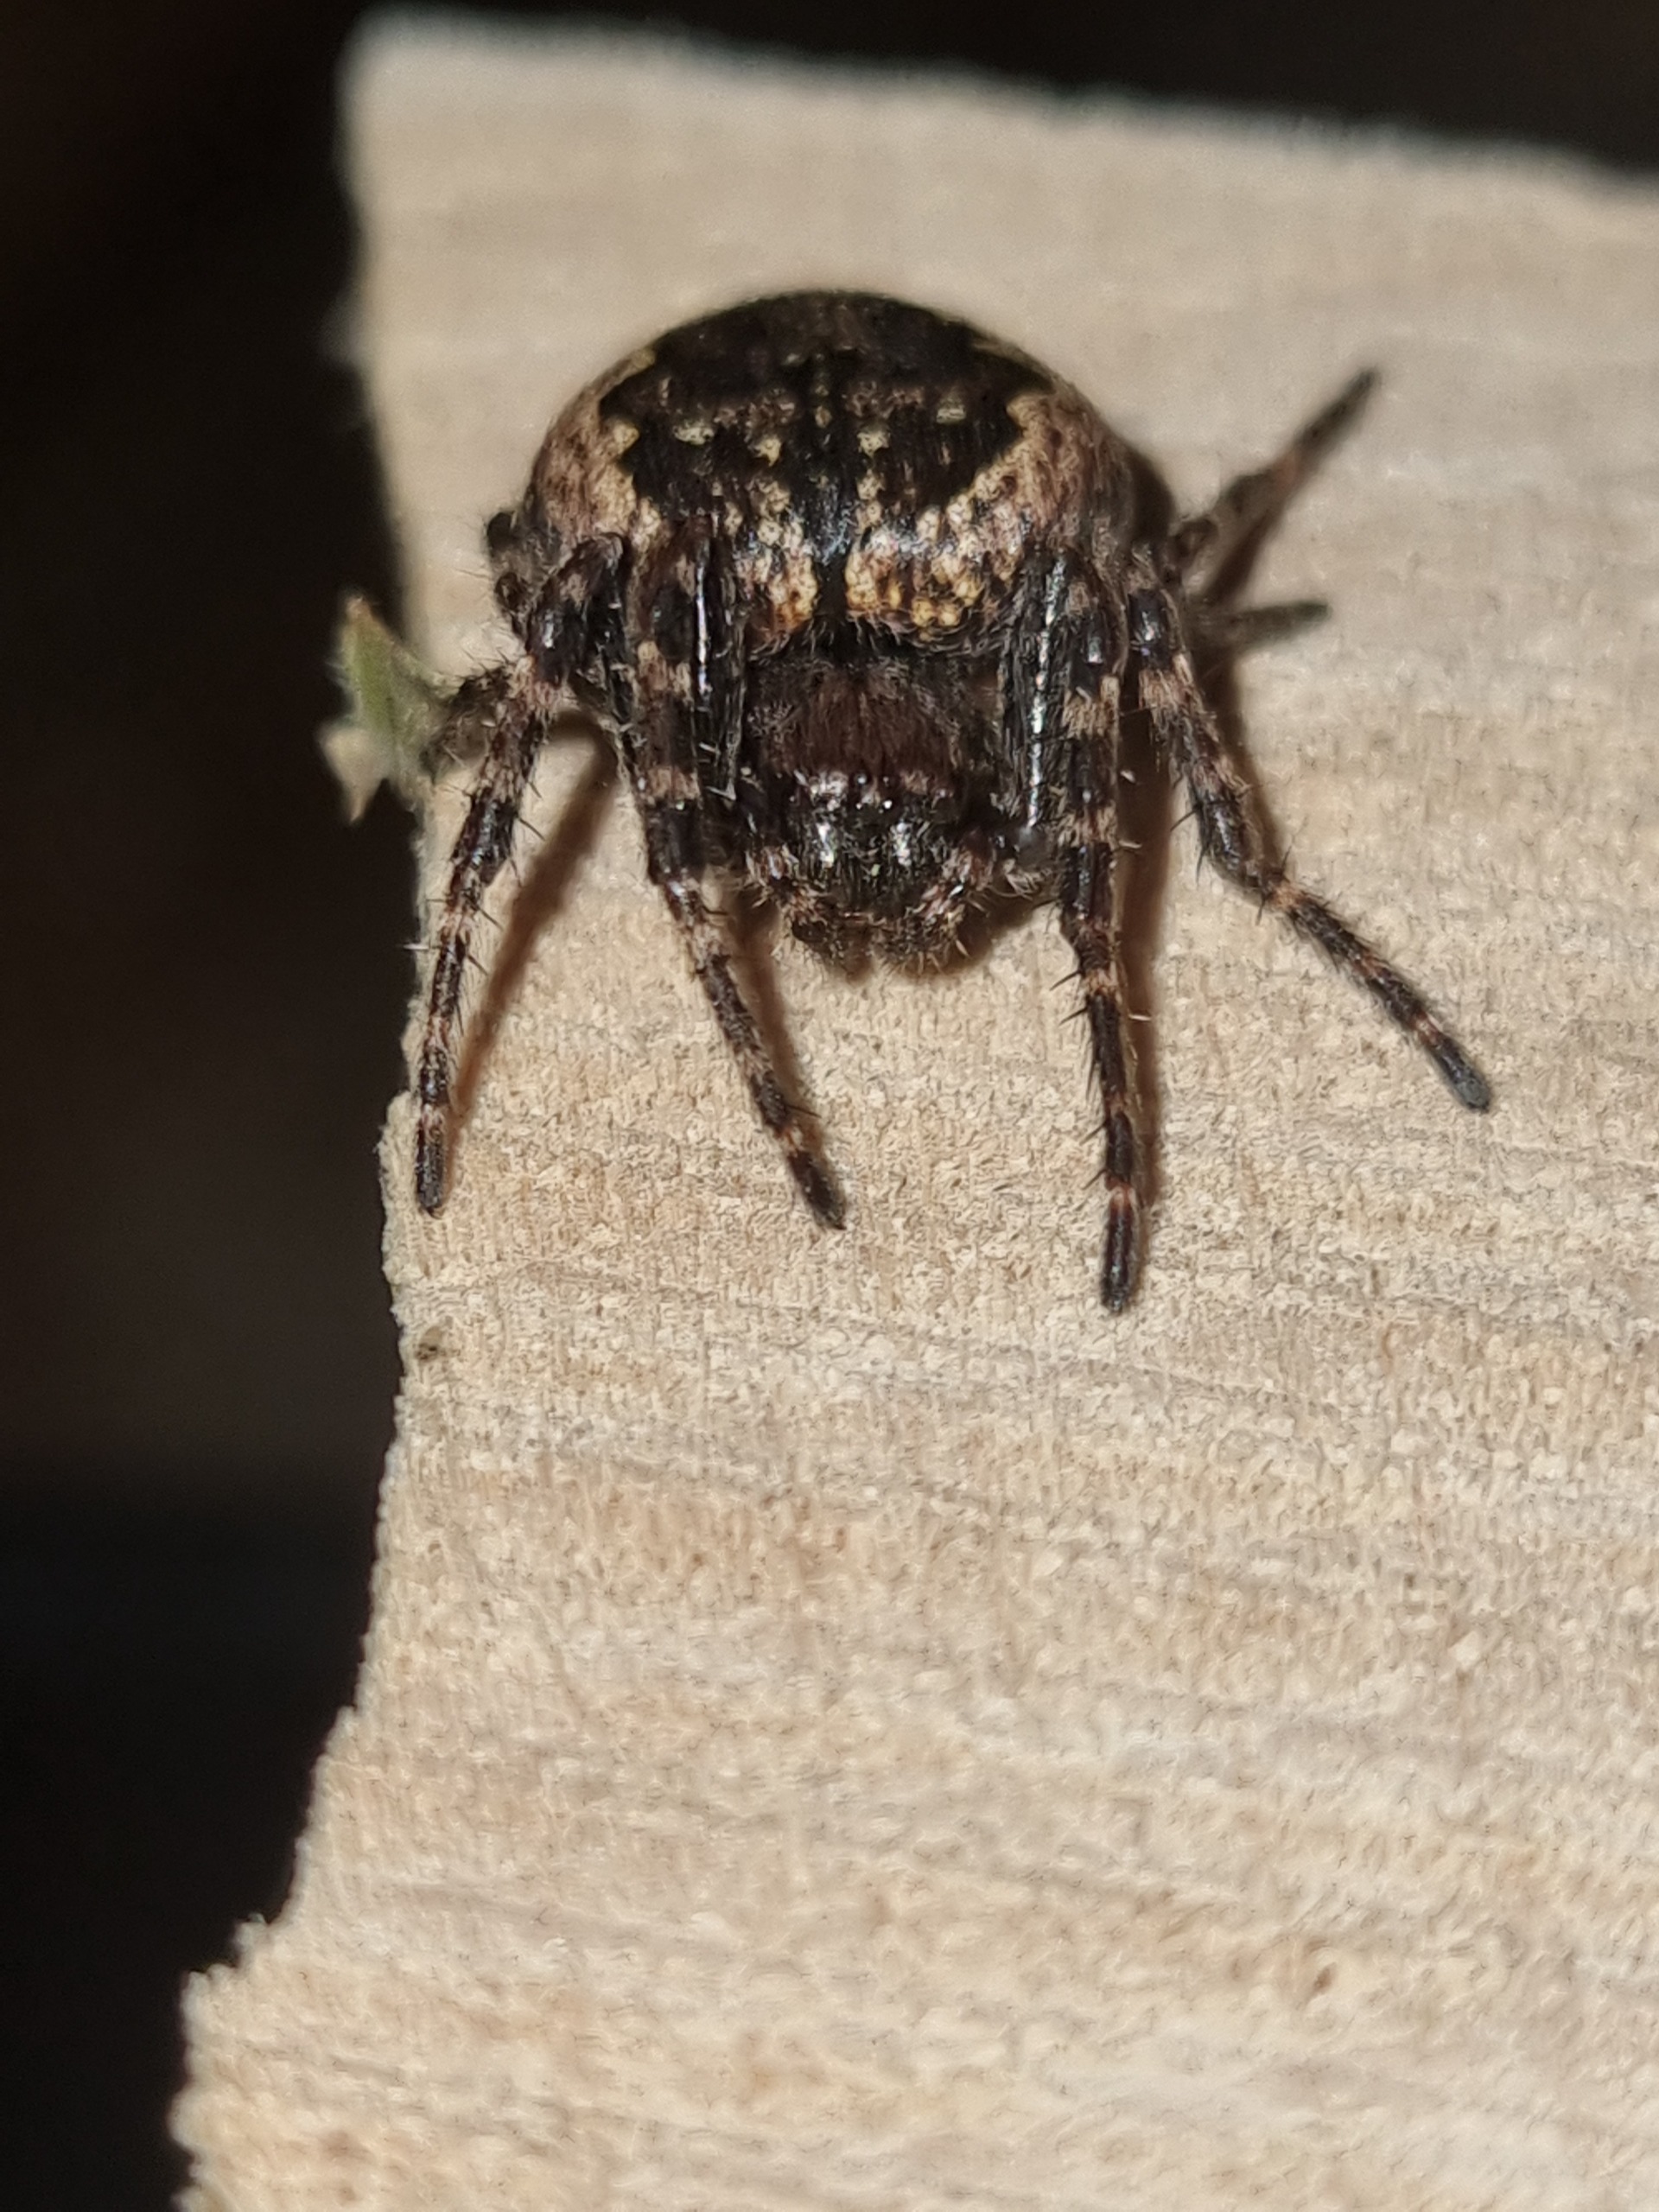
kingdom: Animalia
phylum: Arthropoda
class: Arachnida
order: Araneae
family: Araneidae
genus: Nuctenea
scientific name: Nuctenea umbratica
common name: Flad hjulspinder
